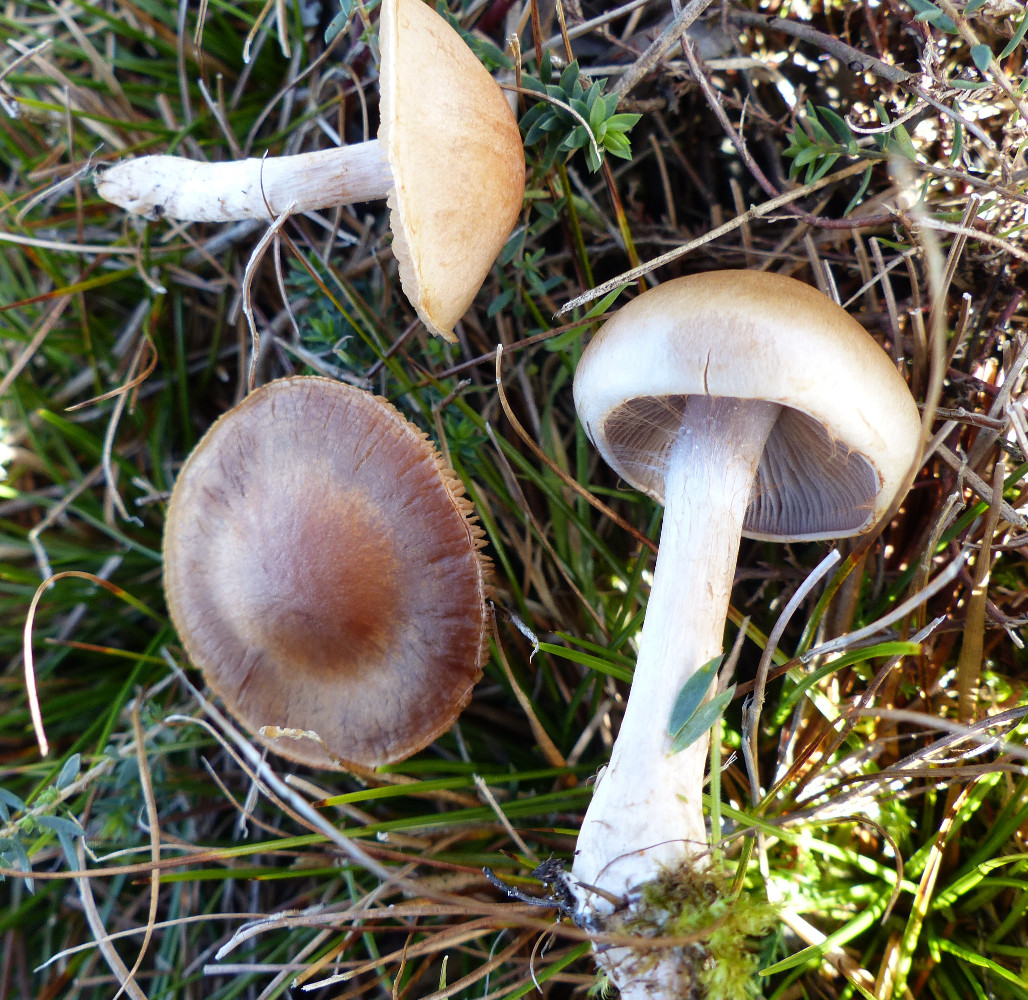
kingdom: Fungi
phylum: Basidiomycota
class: Agaricomycetes
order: Agaricales
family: Cortinariaceae
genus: Cortinarius
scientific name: Cortinarius
